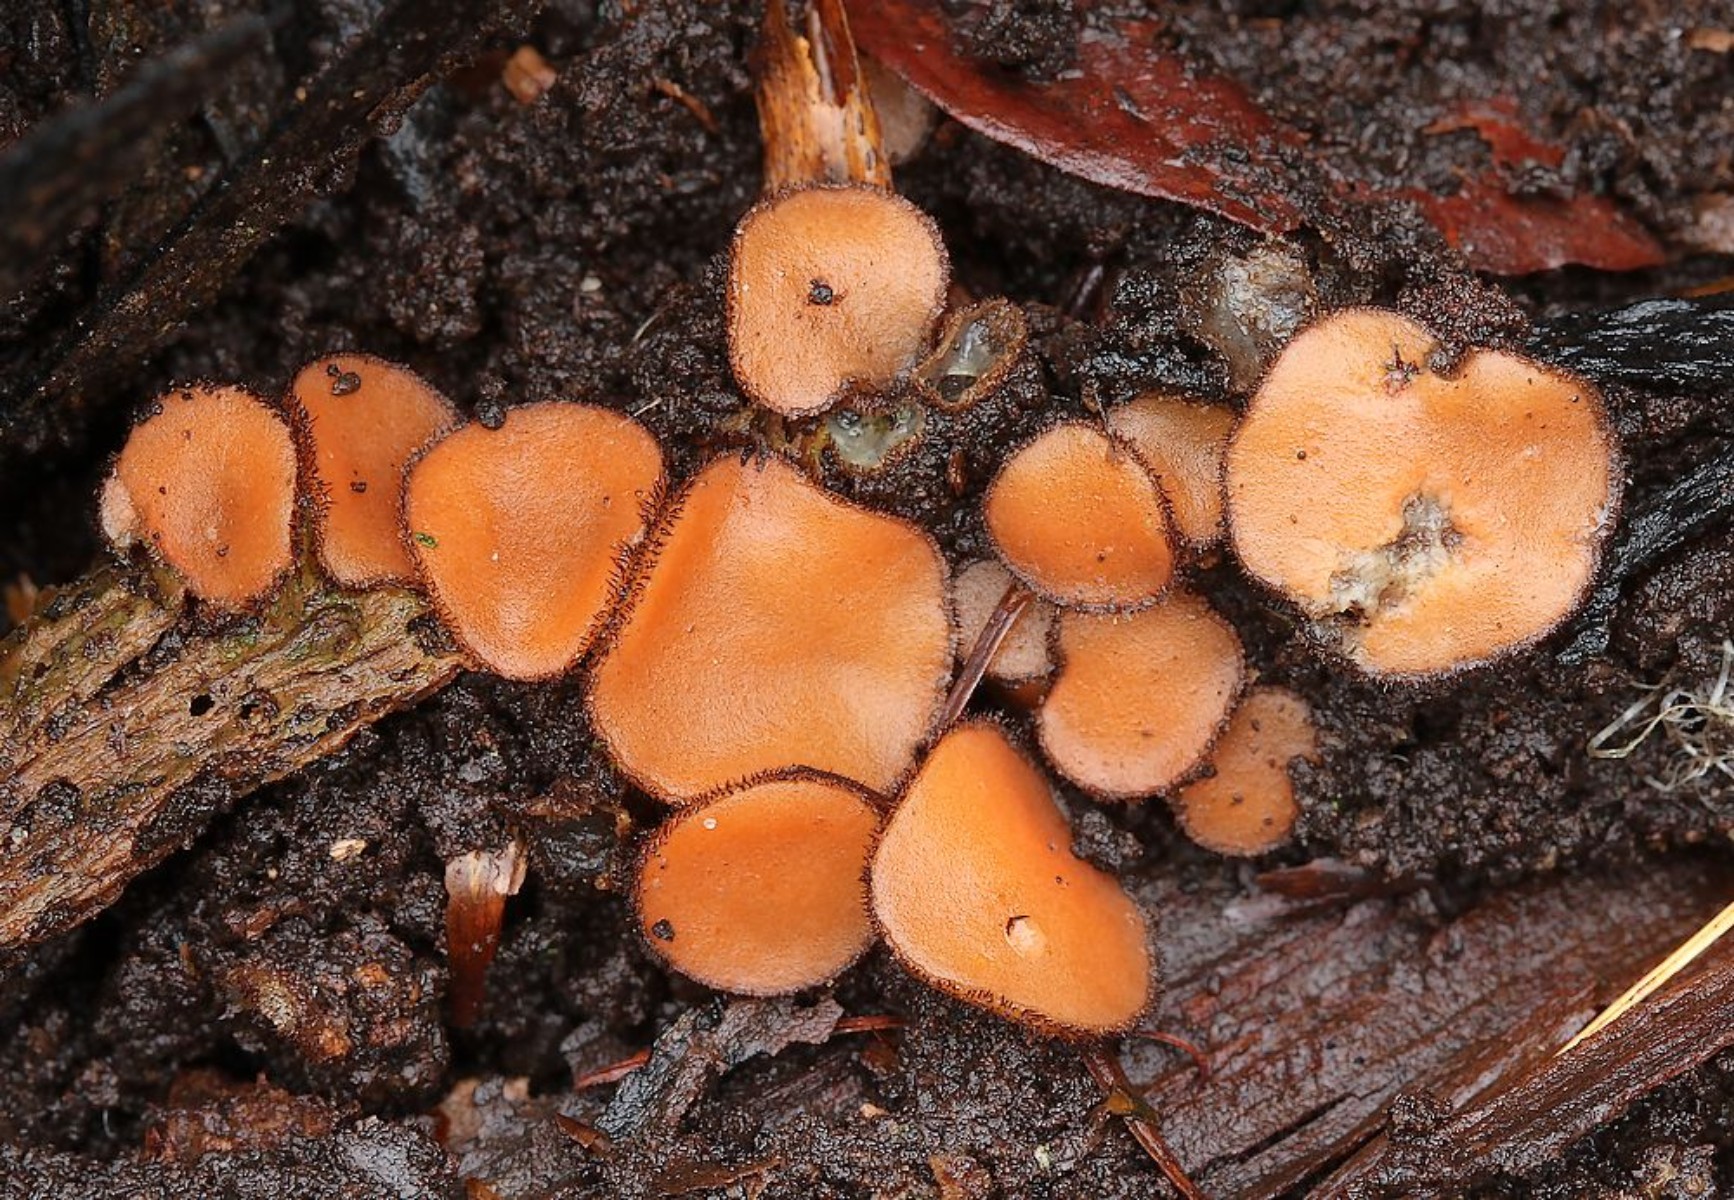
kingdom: Fungi
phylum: Ascomycota
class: Pezizomycetes
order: Pezizales
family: Pyronemataceae
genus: Scutellinia
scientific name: Scutellinia hirta
